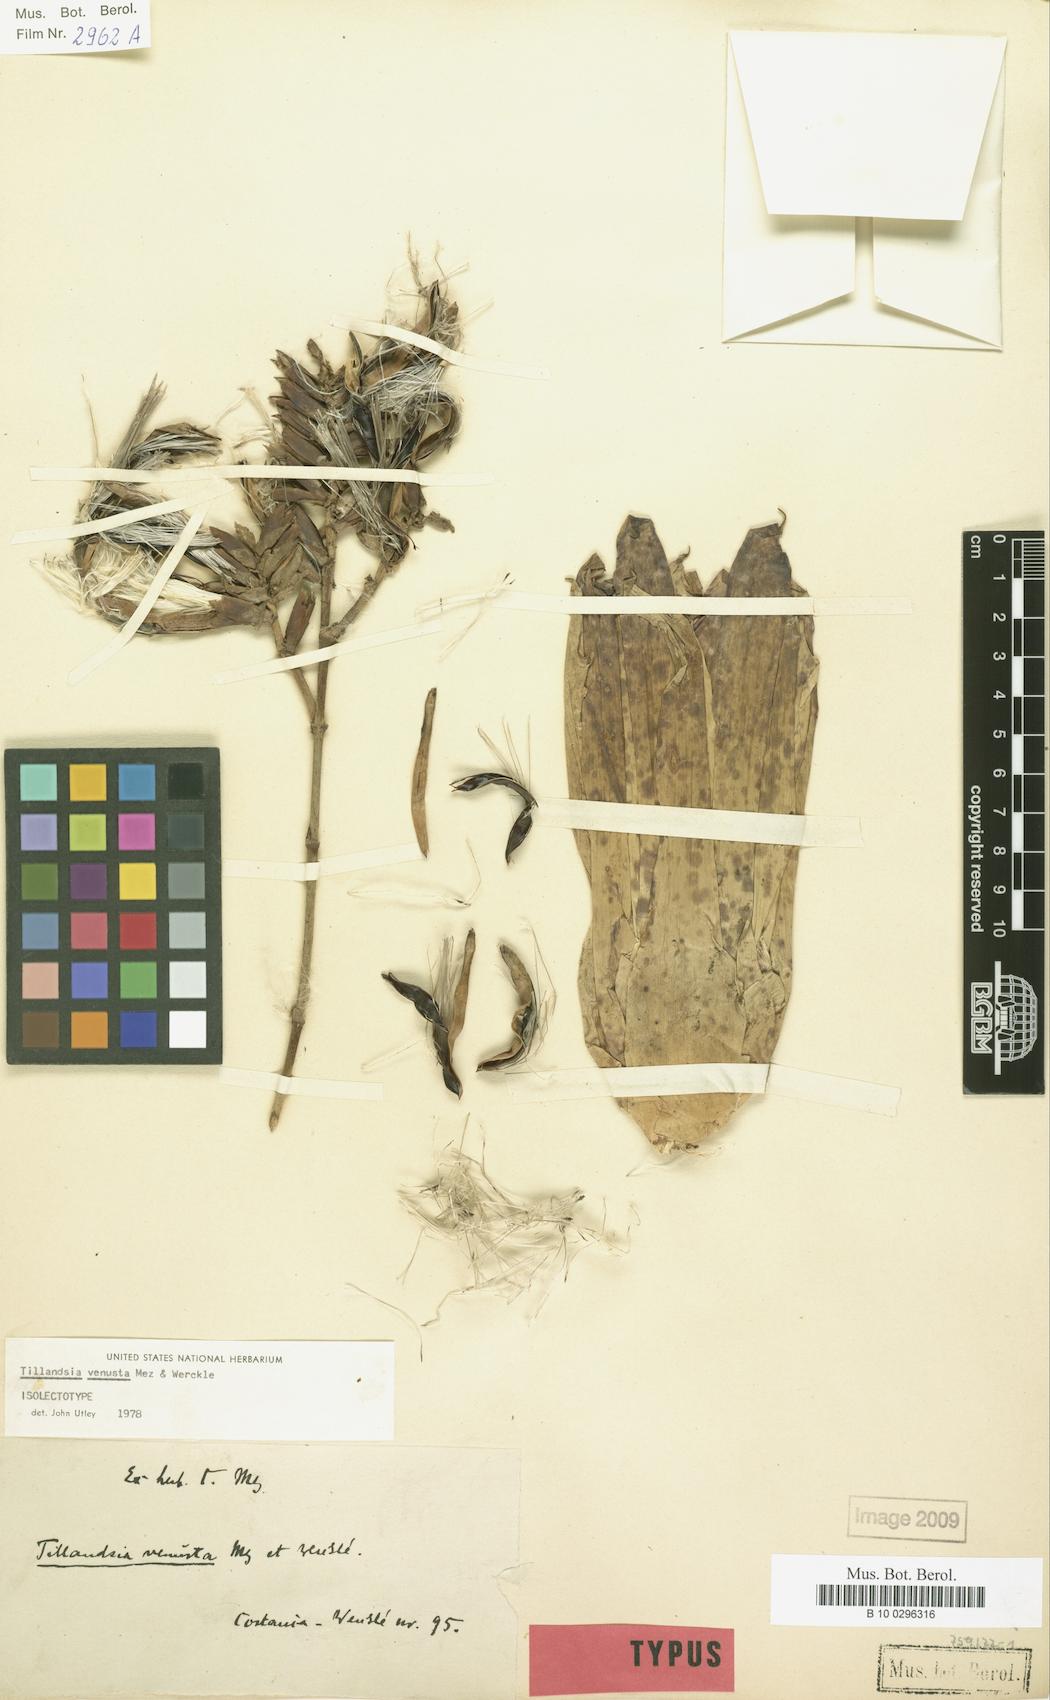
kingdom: Plantae
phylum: Tracheophyta
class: Liliopsida
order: Poales
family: Bromeliaceae
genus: Racinaea
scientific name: Racinaea venusta
